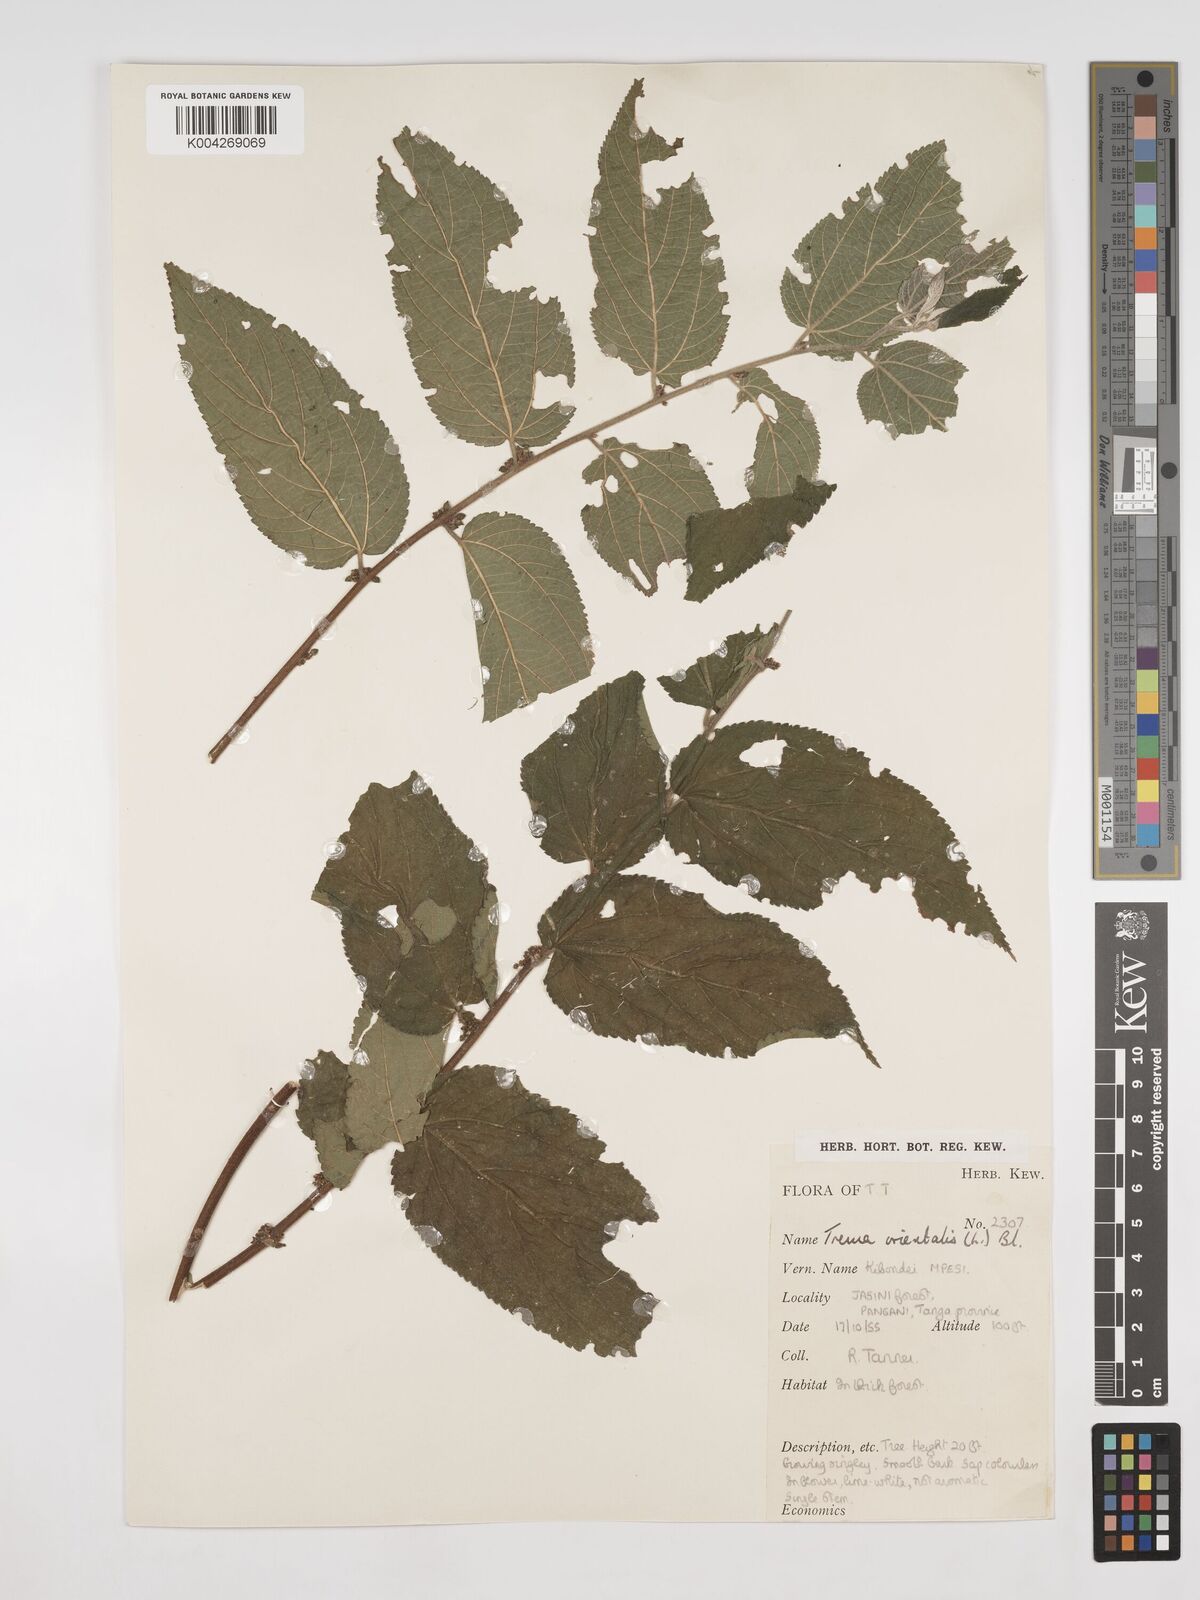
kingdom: Plantae
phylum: Tracheophyta
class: Magnoliopsida
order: Rosales
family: Cannabaceae
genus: Trema
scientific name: Trema orientale
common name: Indian charcoal tree
